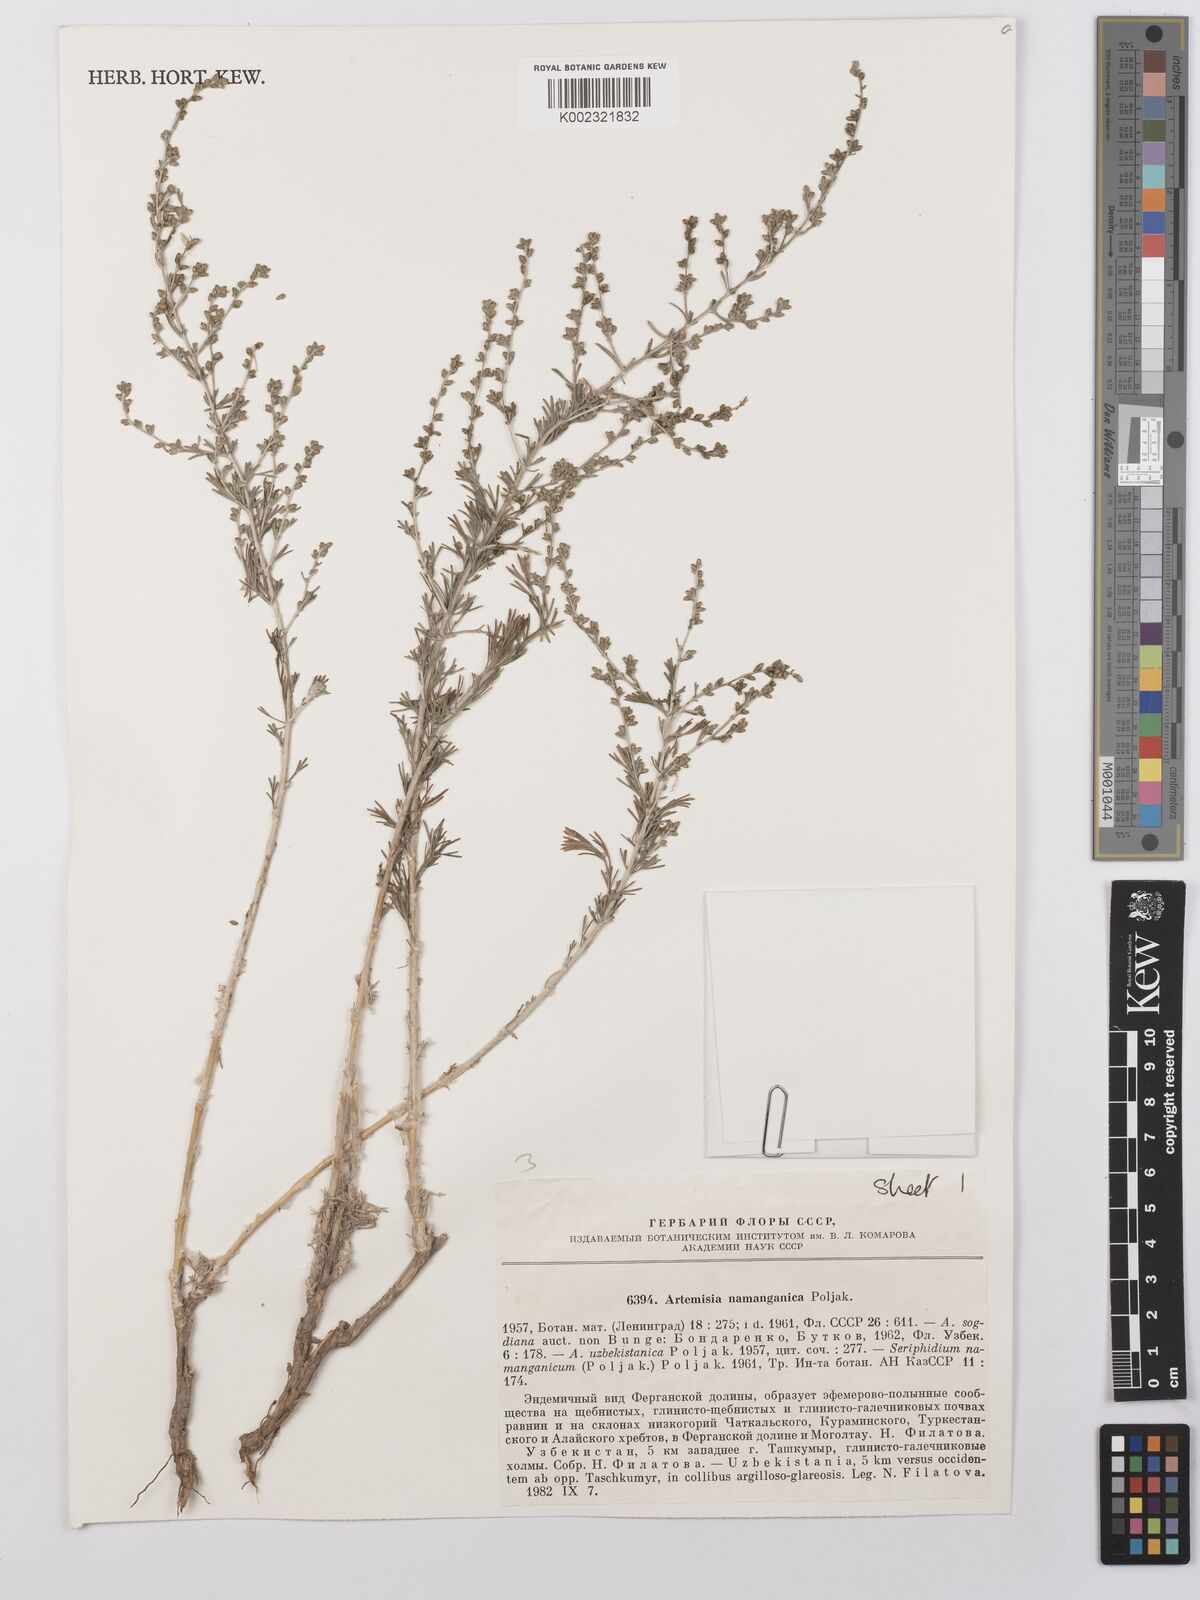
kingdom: Plantae
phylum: Tracheophyta
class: Magnoliopsida
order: Asterales
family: Asteraceae
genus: Artemisia
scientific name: Artemisia namanganica
